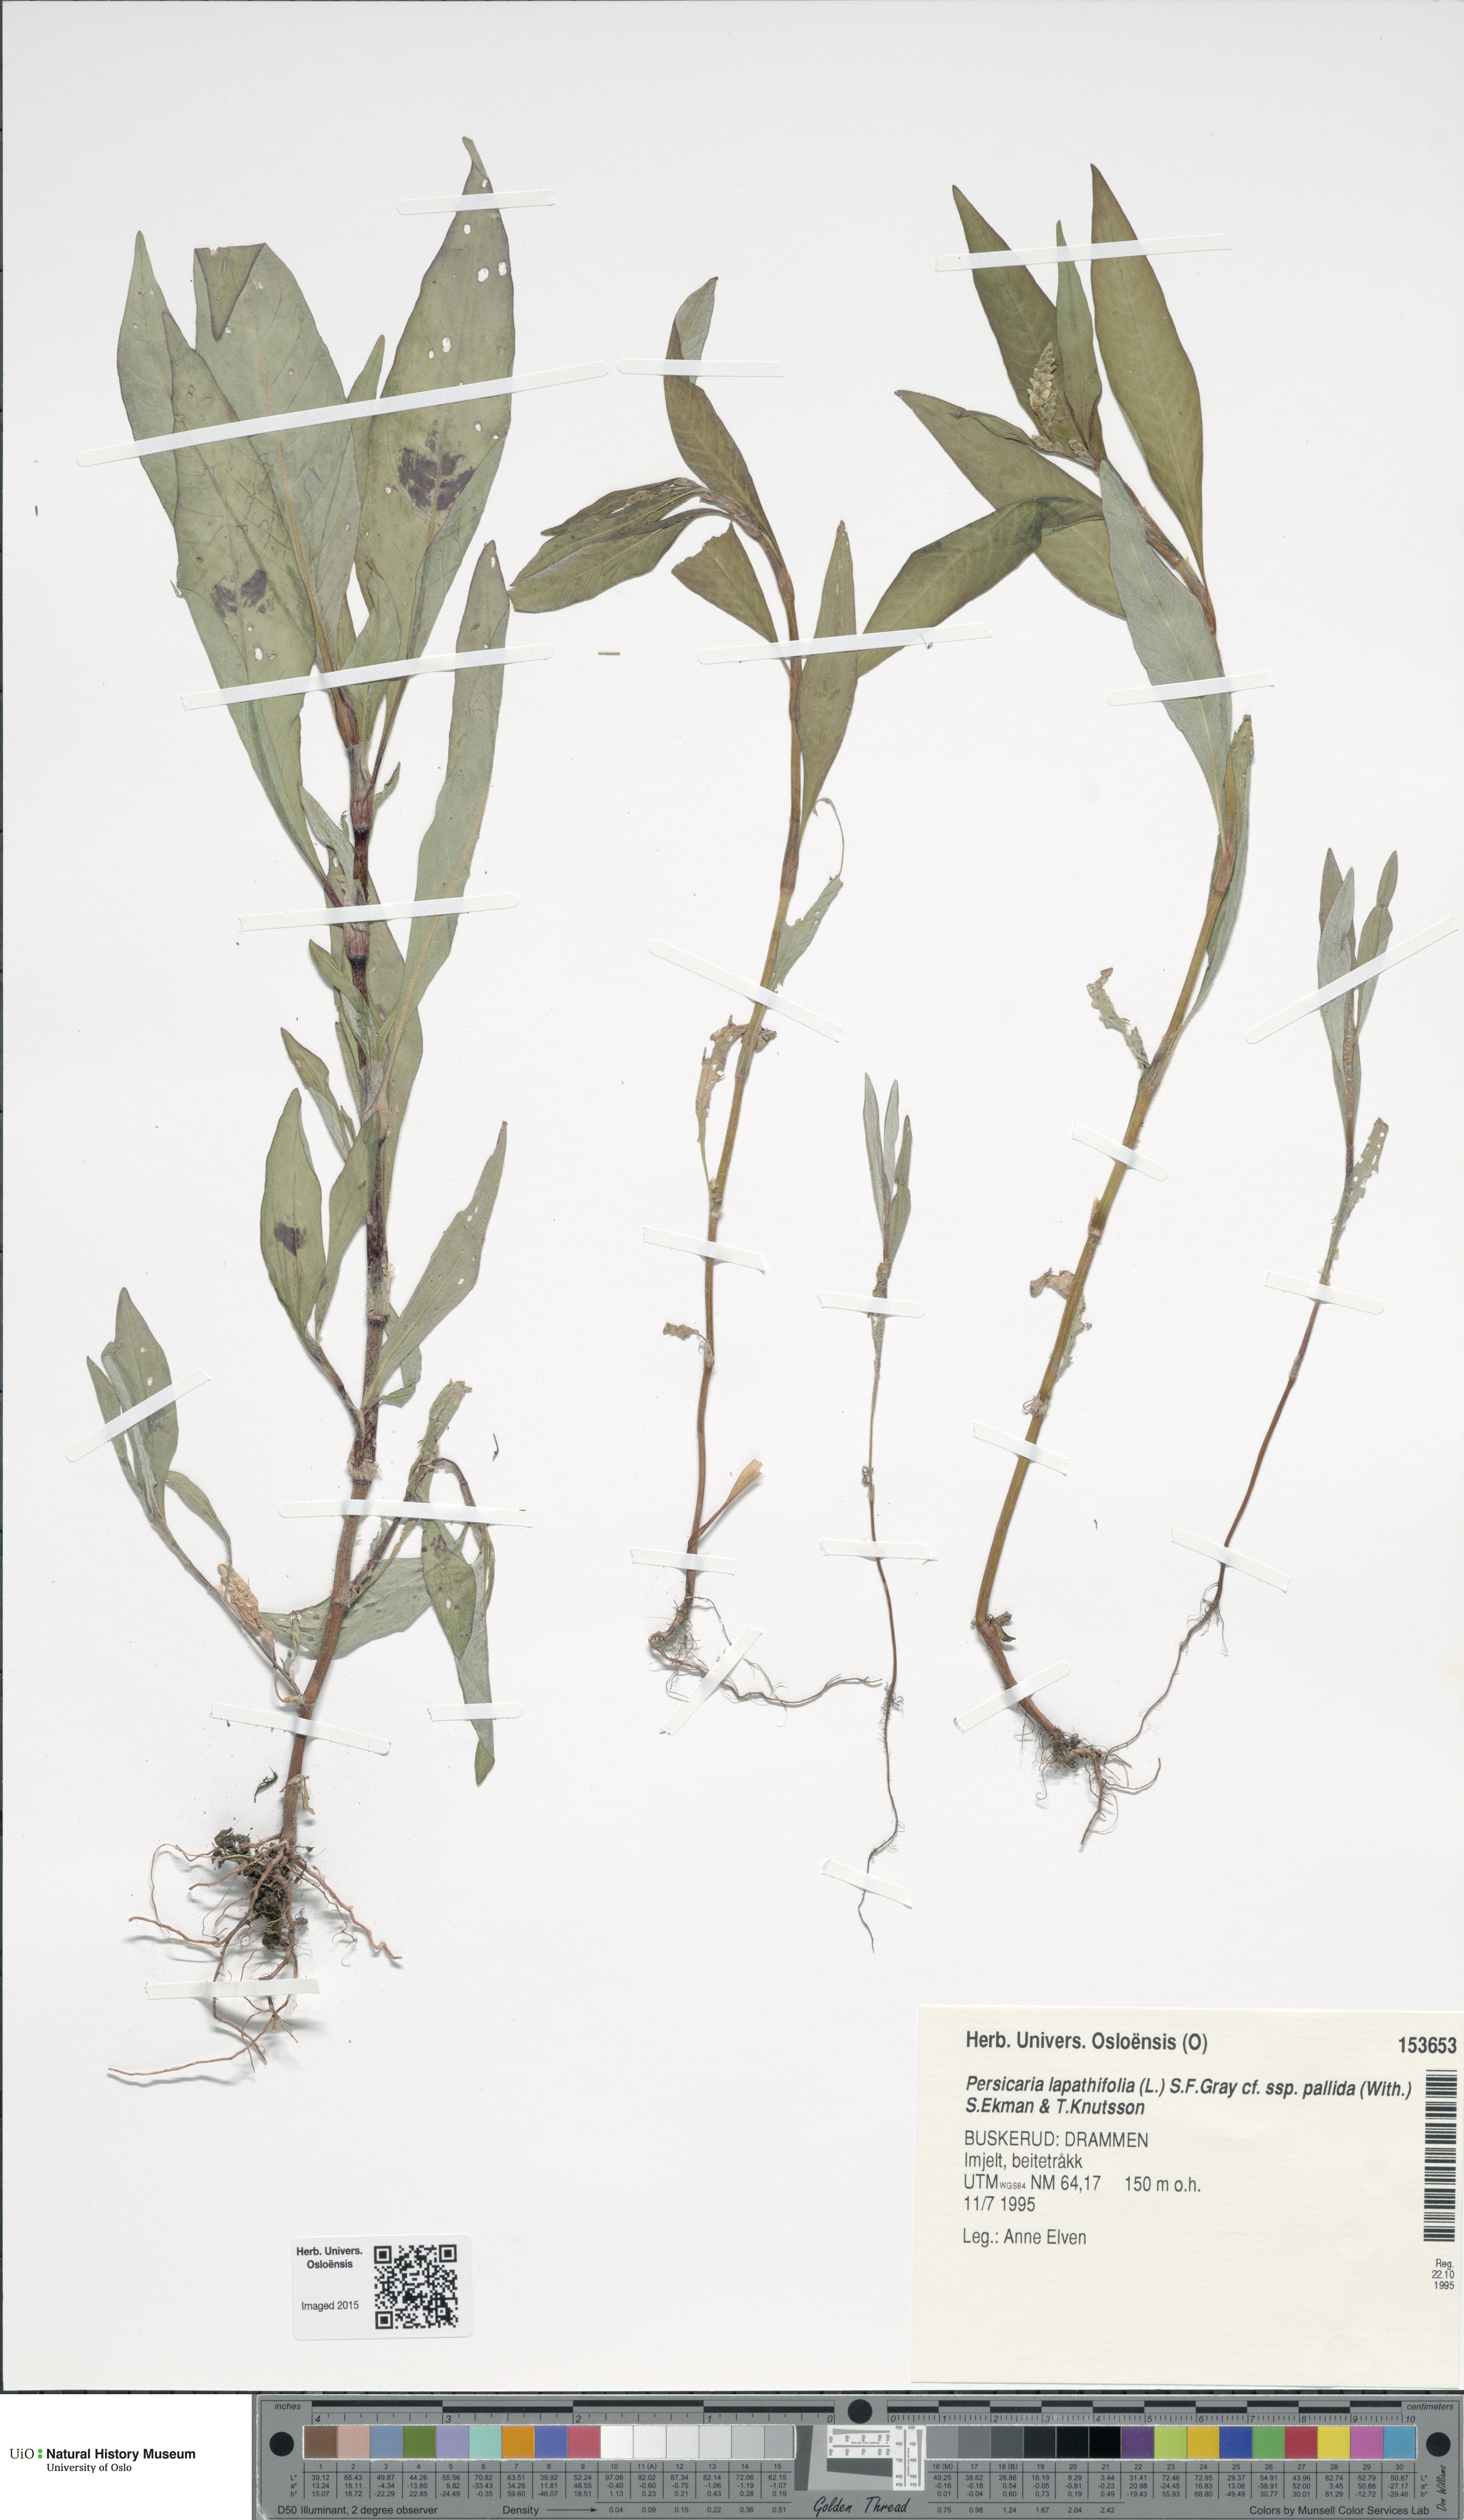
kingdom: Plantae
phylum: Tracheophyta
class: Magnoliopsida
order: Caryophyllales
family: Polygonaceae
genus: Persicaria
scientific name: Persicaria lapathifolia
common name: Curlytop knotweed
